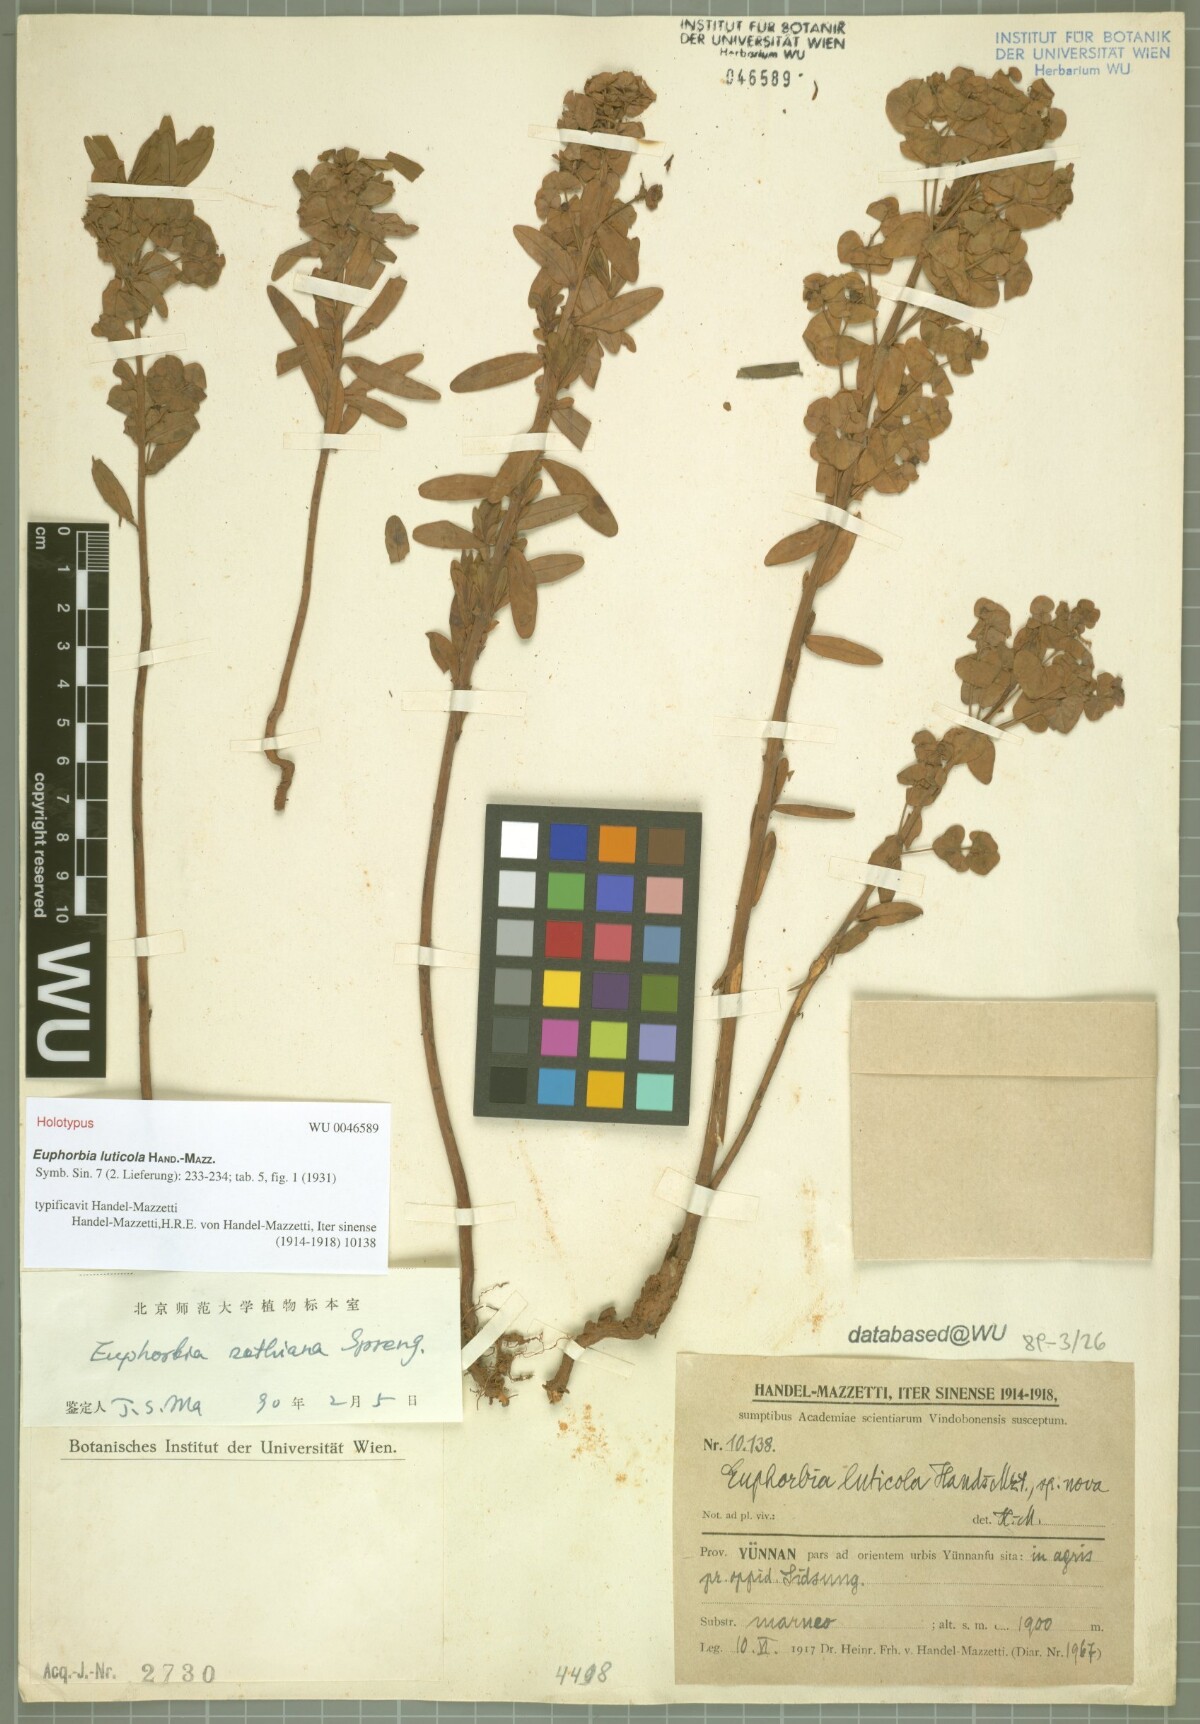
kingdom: Plantae
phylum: Tracheophyta
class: Magnoliopsida
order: Malpighiales
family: Euphorbiaceae
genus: Euphorbia
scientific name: Euphorbia sieboldiana
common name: Siebold's spurge
